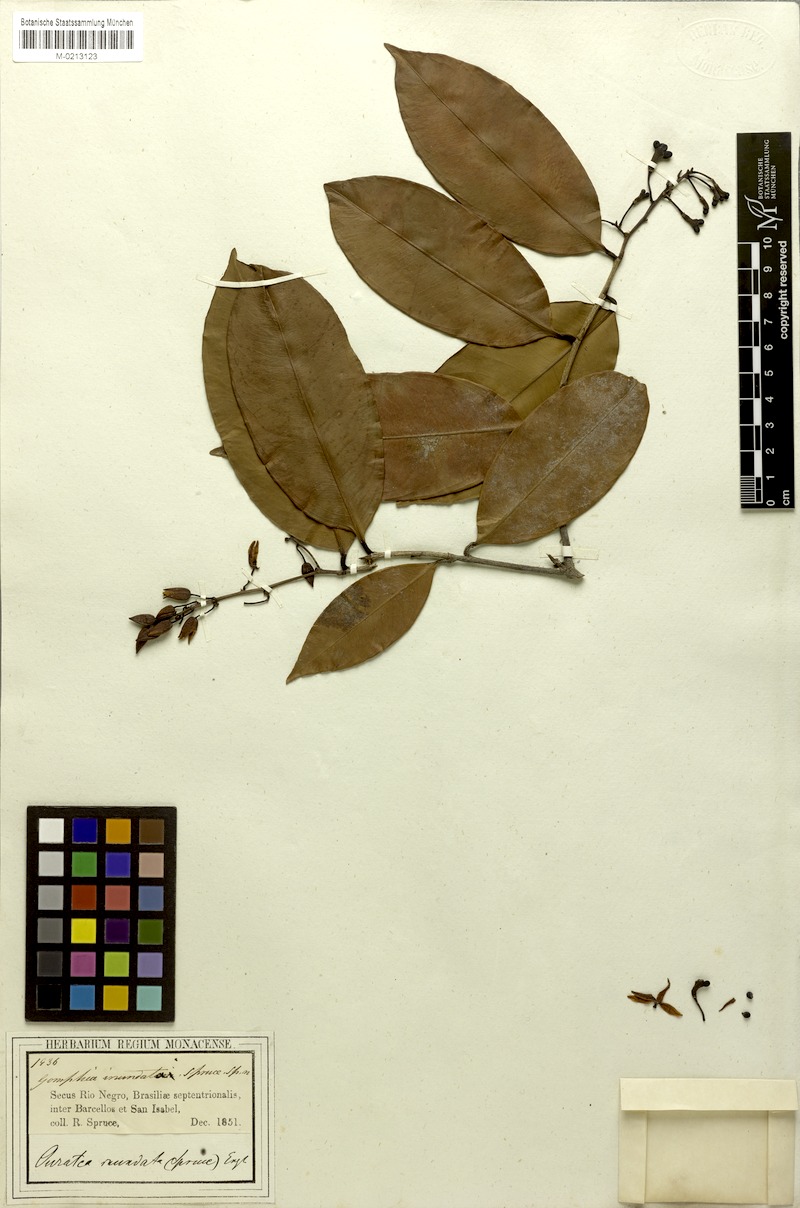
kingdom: Plantae
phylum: Tracheophyta
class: Magnoliopsida
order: Malpighiales
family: Ochnaceae
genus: Ouratea
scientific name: Ouratea superba
